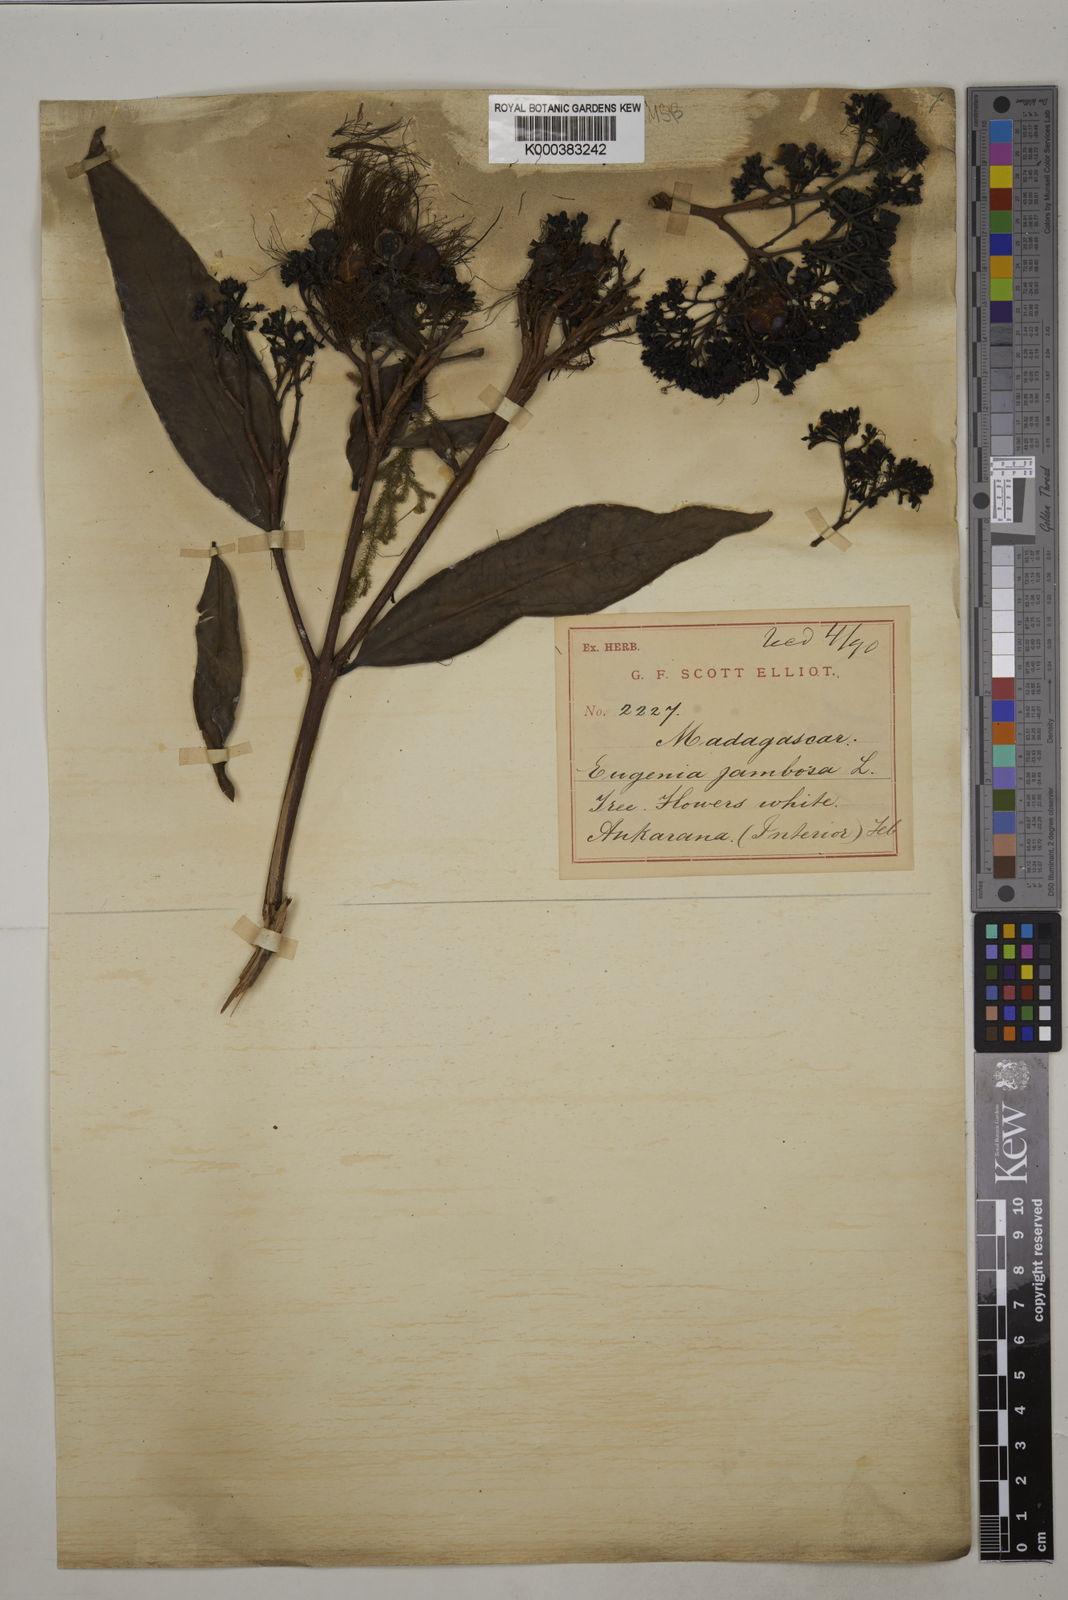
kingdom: Plantae
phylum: Tracheophyta
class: Magnoliopsida
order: Myrtales
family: Myrtaceae
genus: Syzygium
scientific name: Syzygium jambos
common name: Malabar plum
